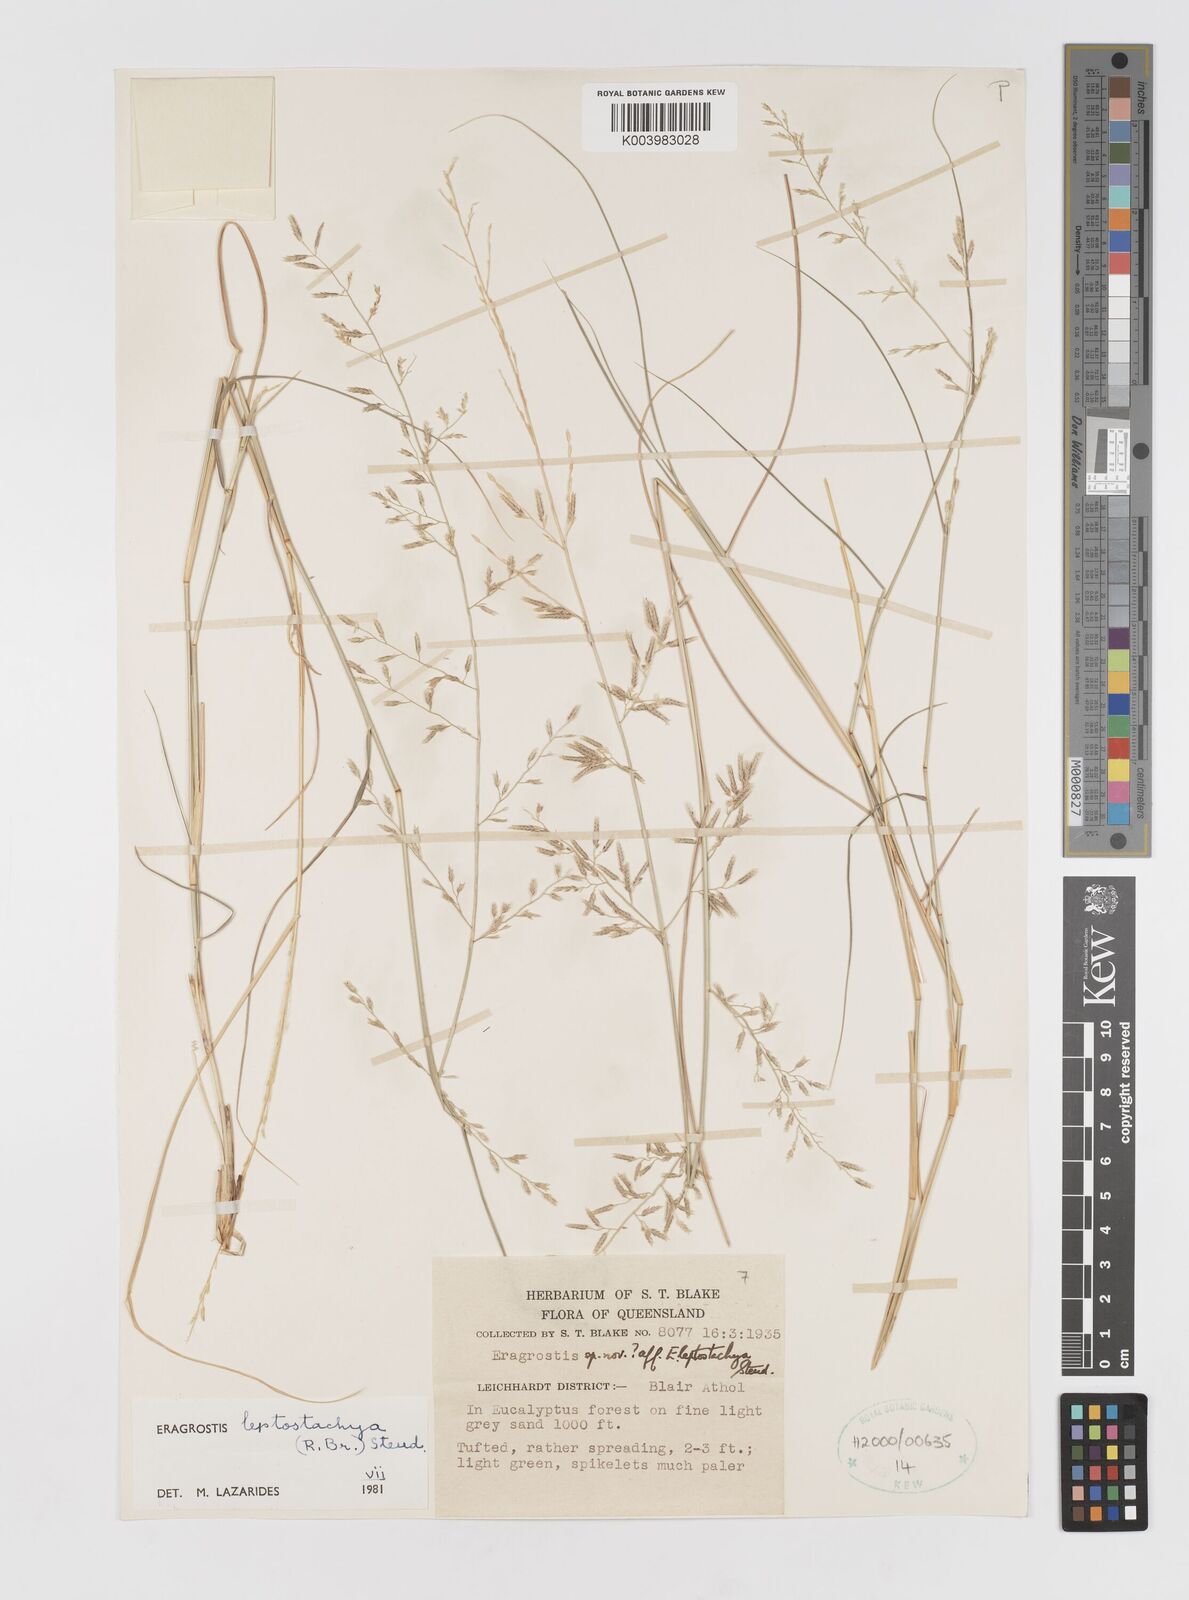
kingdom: Plantae
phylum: Tracheophyta
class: Liliopsida
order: Poales
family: Poaceae
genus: Eragrostis
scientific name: Eragrostis leptostachya
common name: Australian lovegrass
